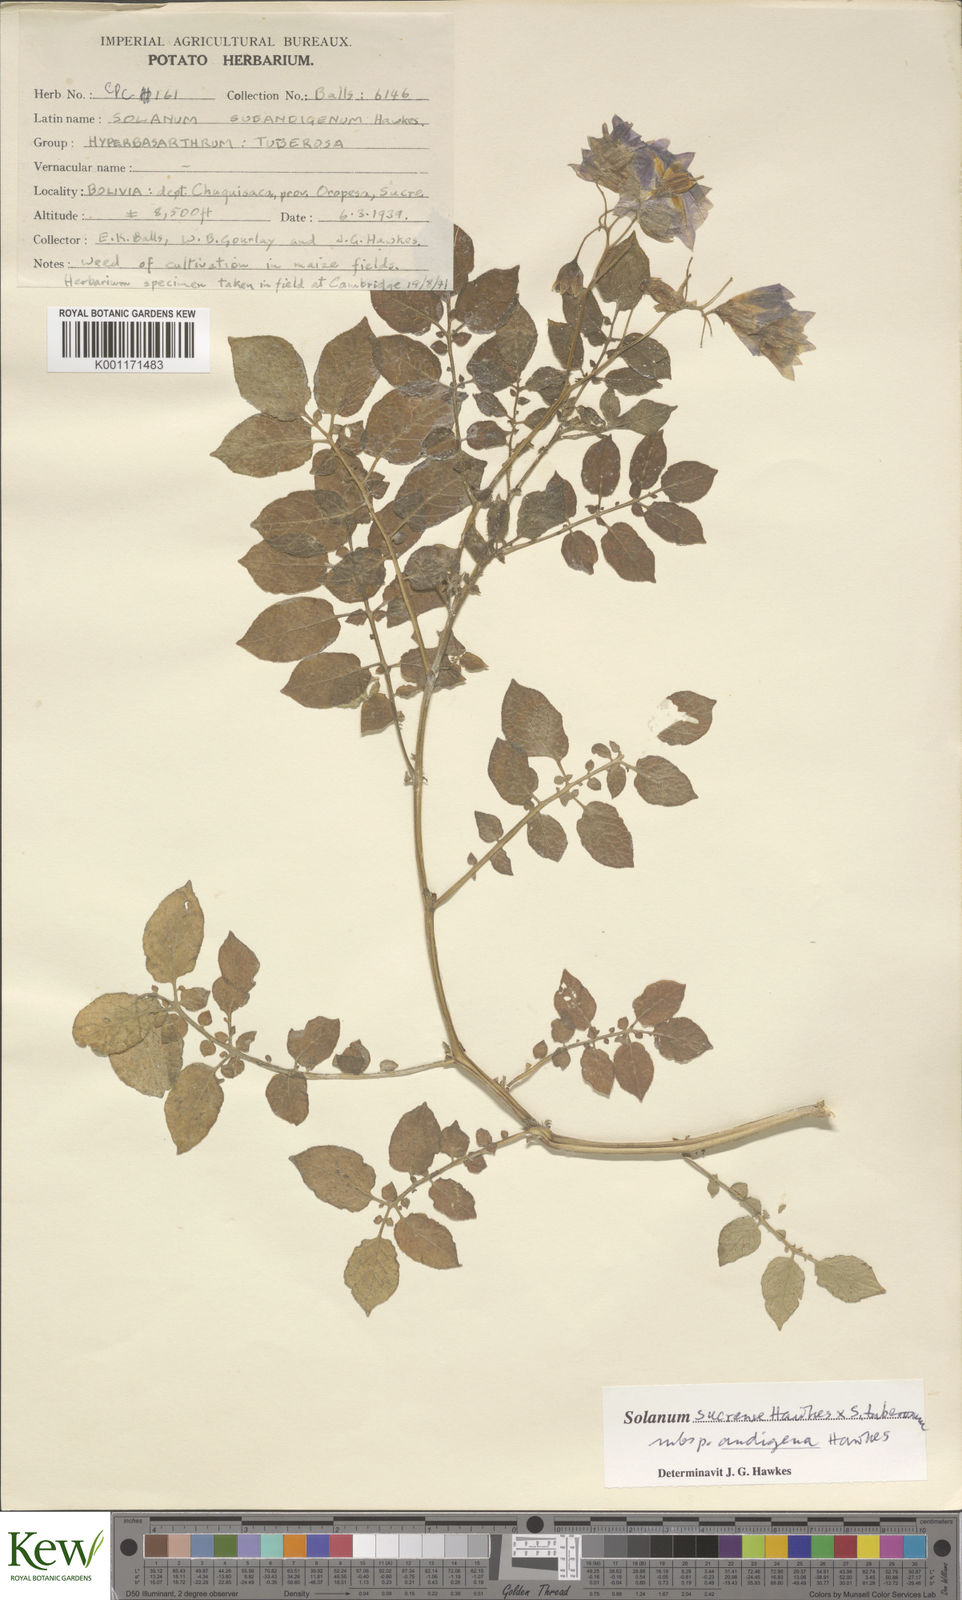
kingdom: Plantae
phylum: Tracheophyta
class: Magnoliopsida
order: Solanales
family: Solanaceae
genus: Solanum
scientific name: Solanum tuberosum
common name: Potato
